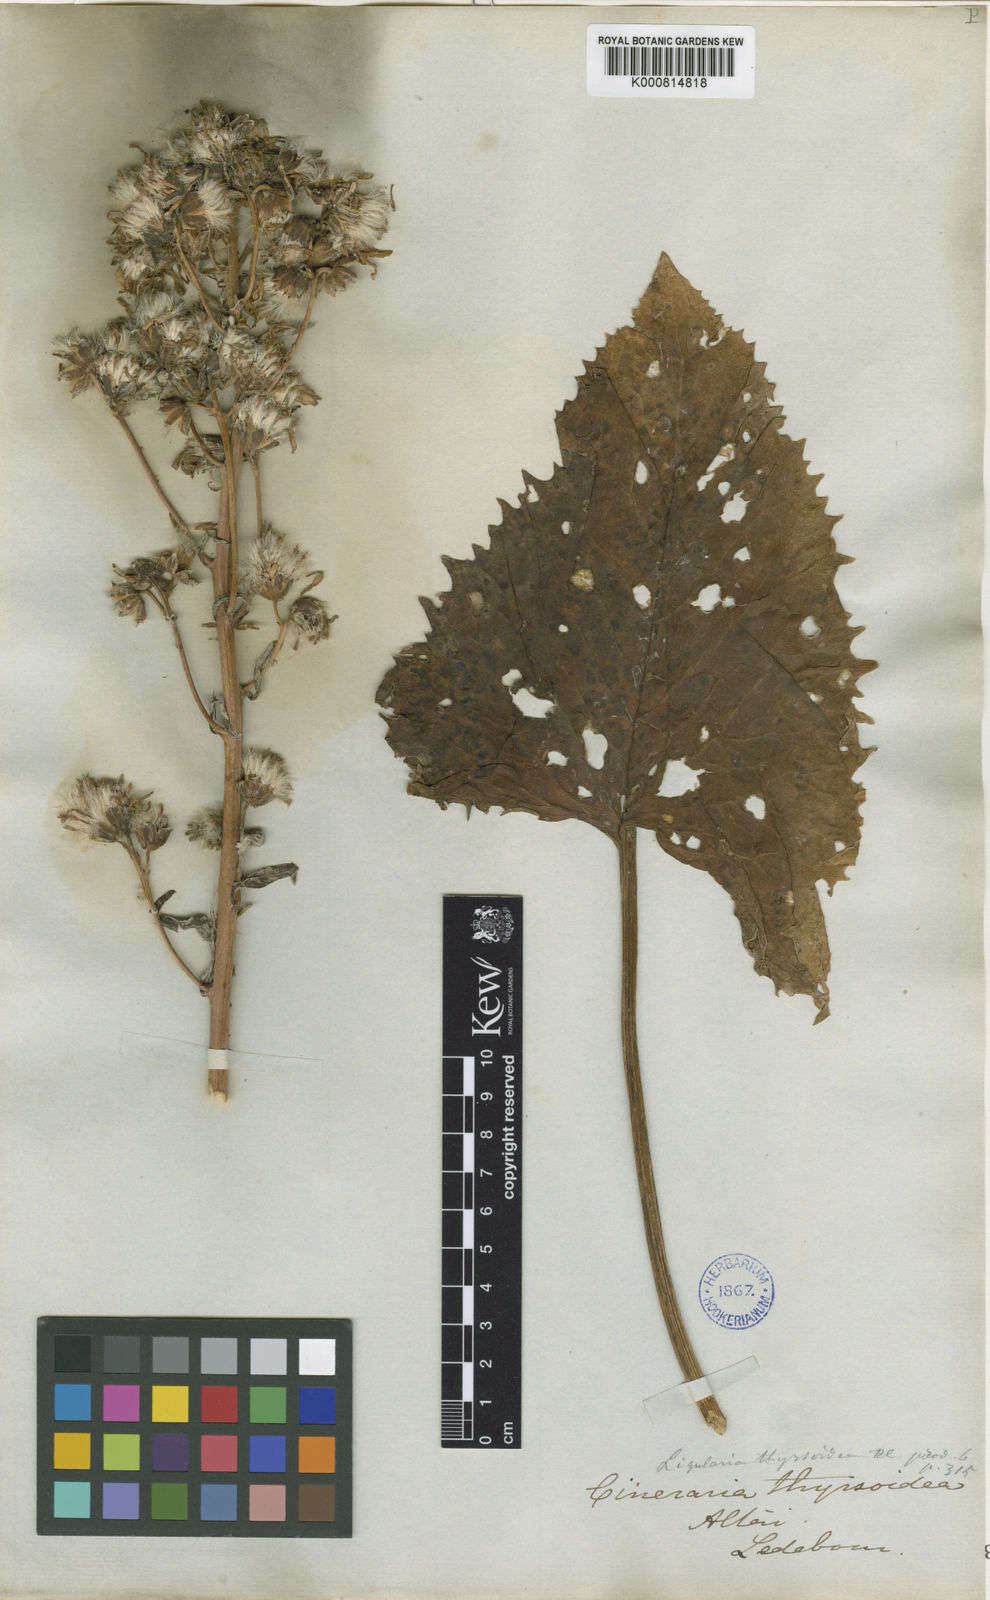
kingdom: Plantae
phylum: Tracheophyta
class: Magnoliopsida
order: Asterales
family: Asteraceae
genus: Vickifunkia
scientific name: Vickifunkia thyrsoidea
